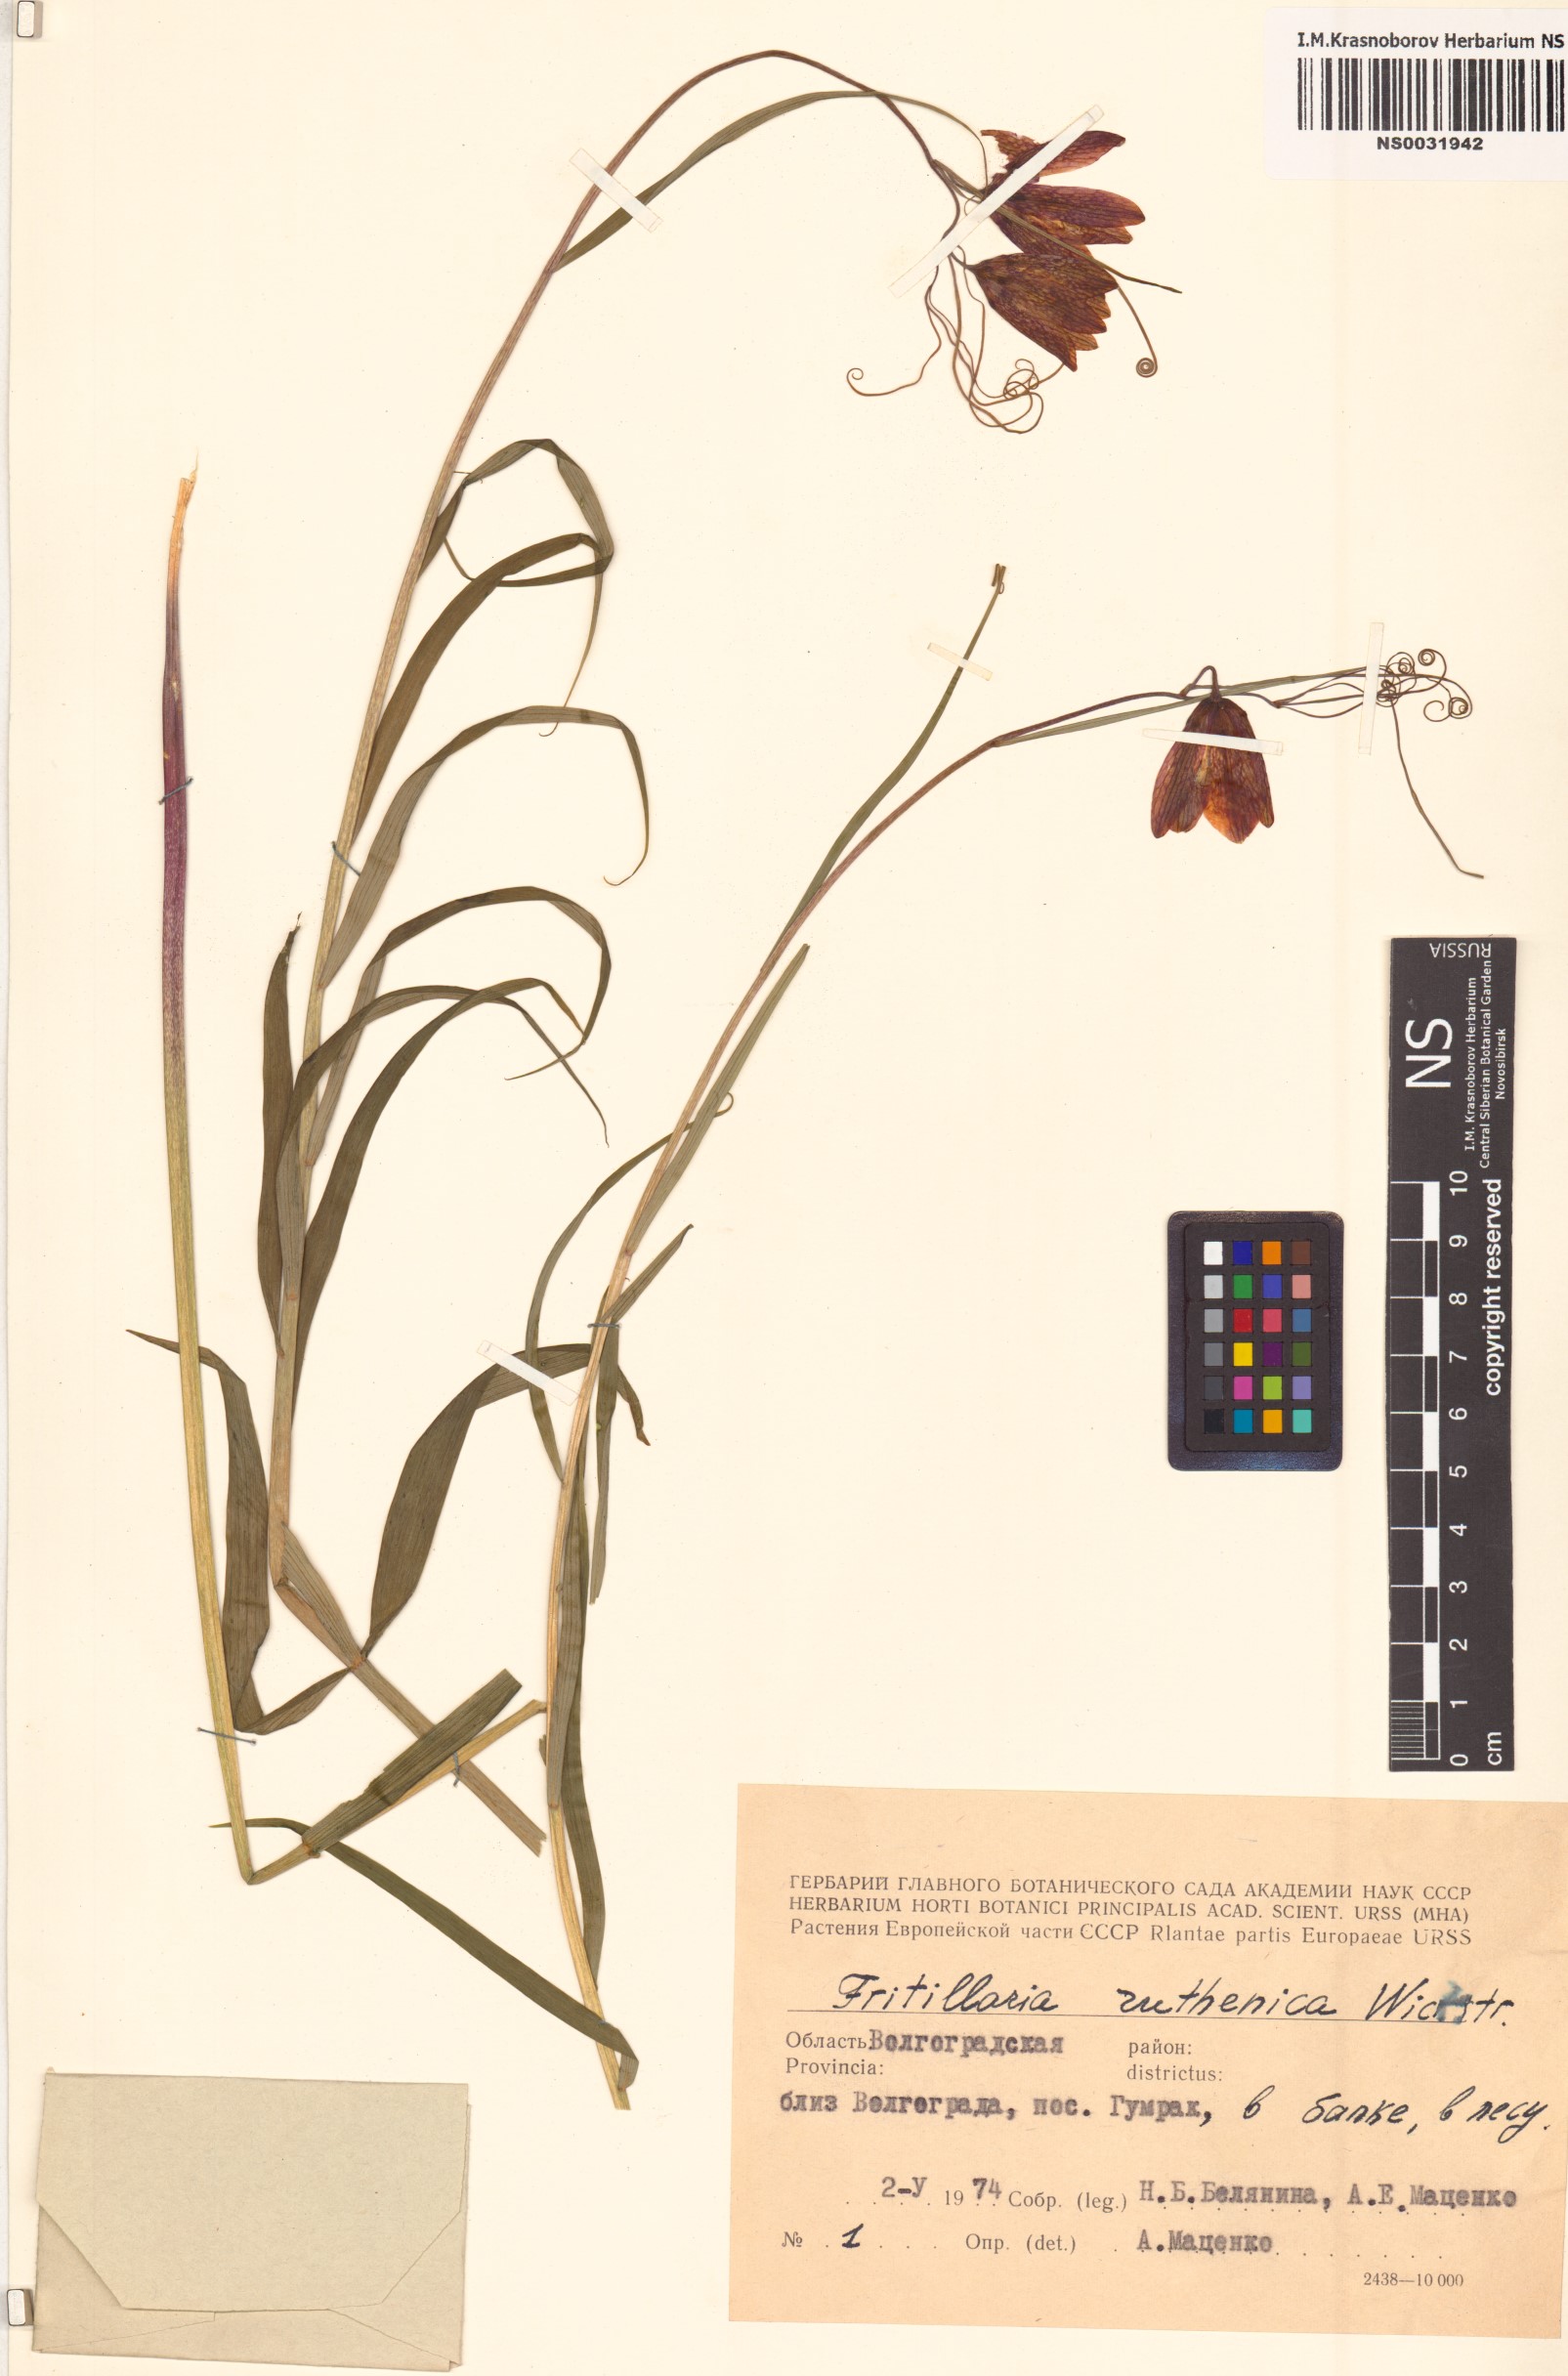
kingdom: Plantae
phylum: Tracheophyta
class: Liliopsida
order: Liliales
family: Liliaceae
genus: Fritillaria
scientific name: Fritillaria ruthenica
